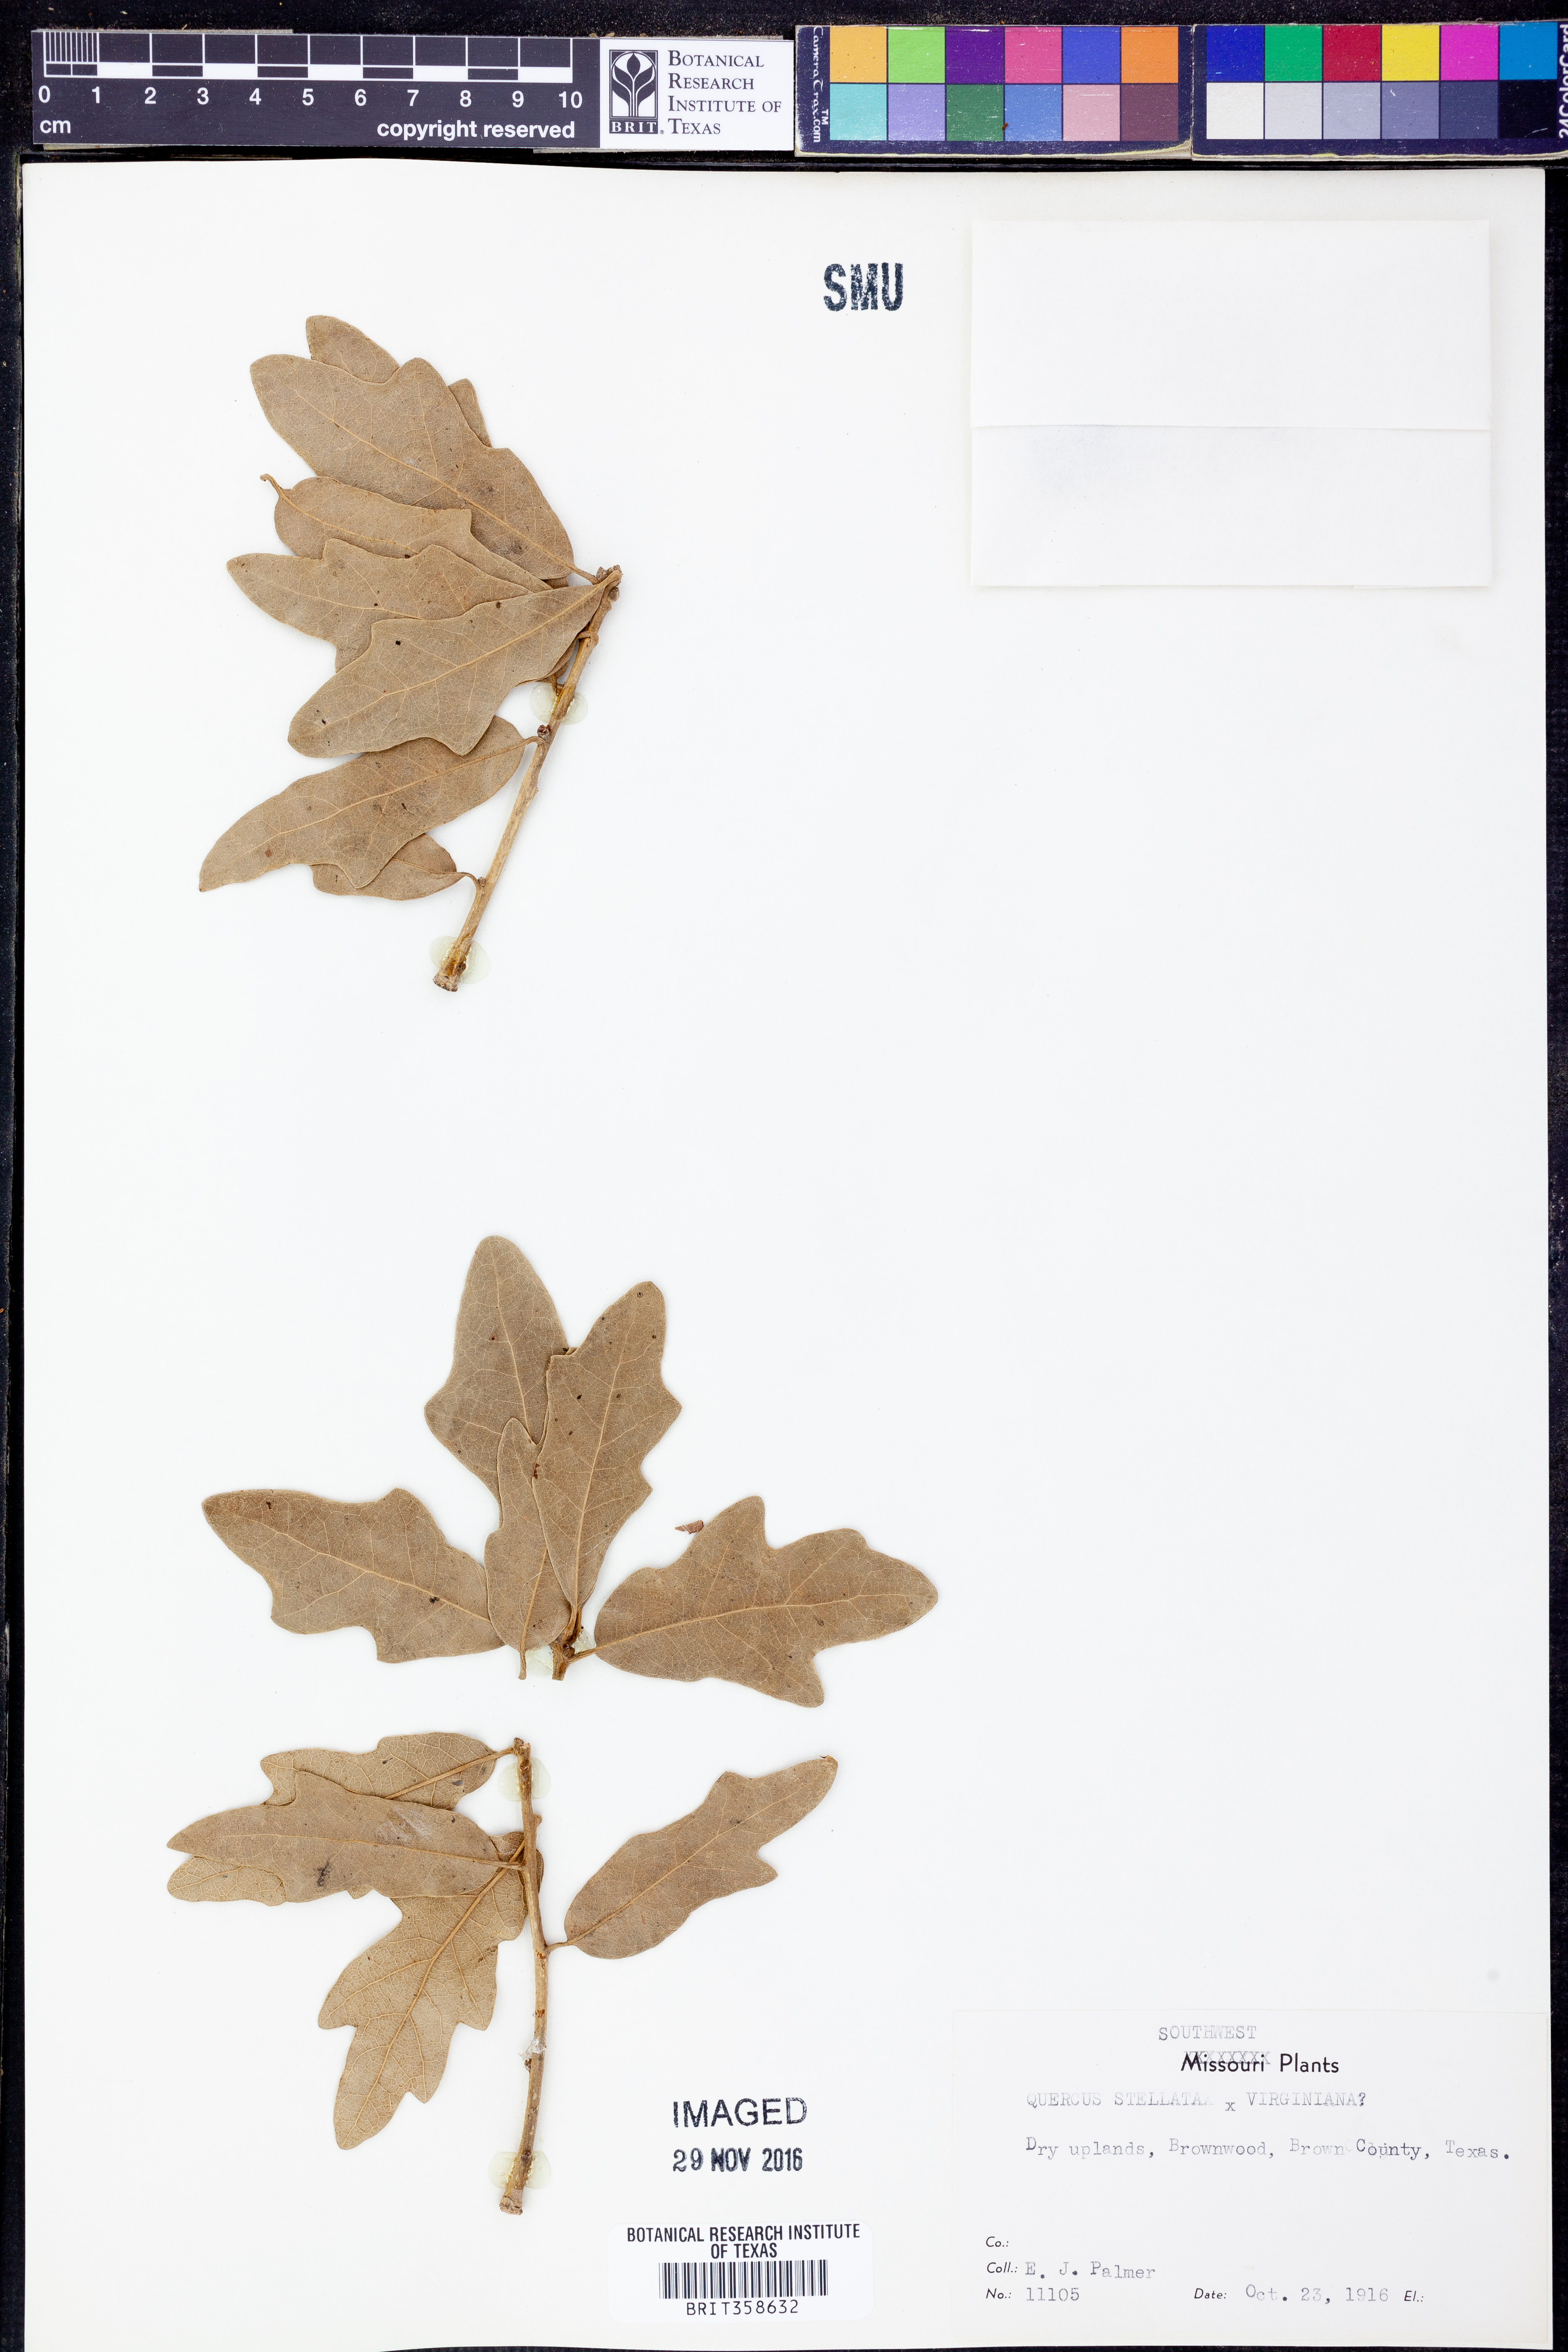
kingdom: Plantae
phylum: Tracheophyta
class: Magnoliopsida
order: Fagales
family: Fagaceae
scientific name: Fagaceae
